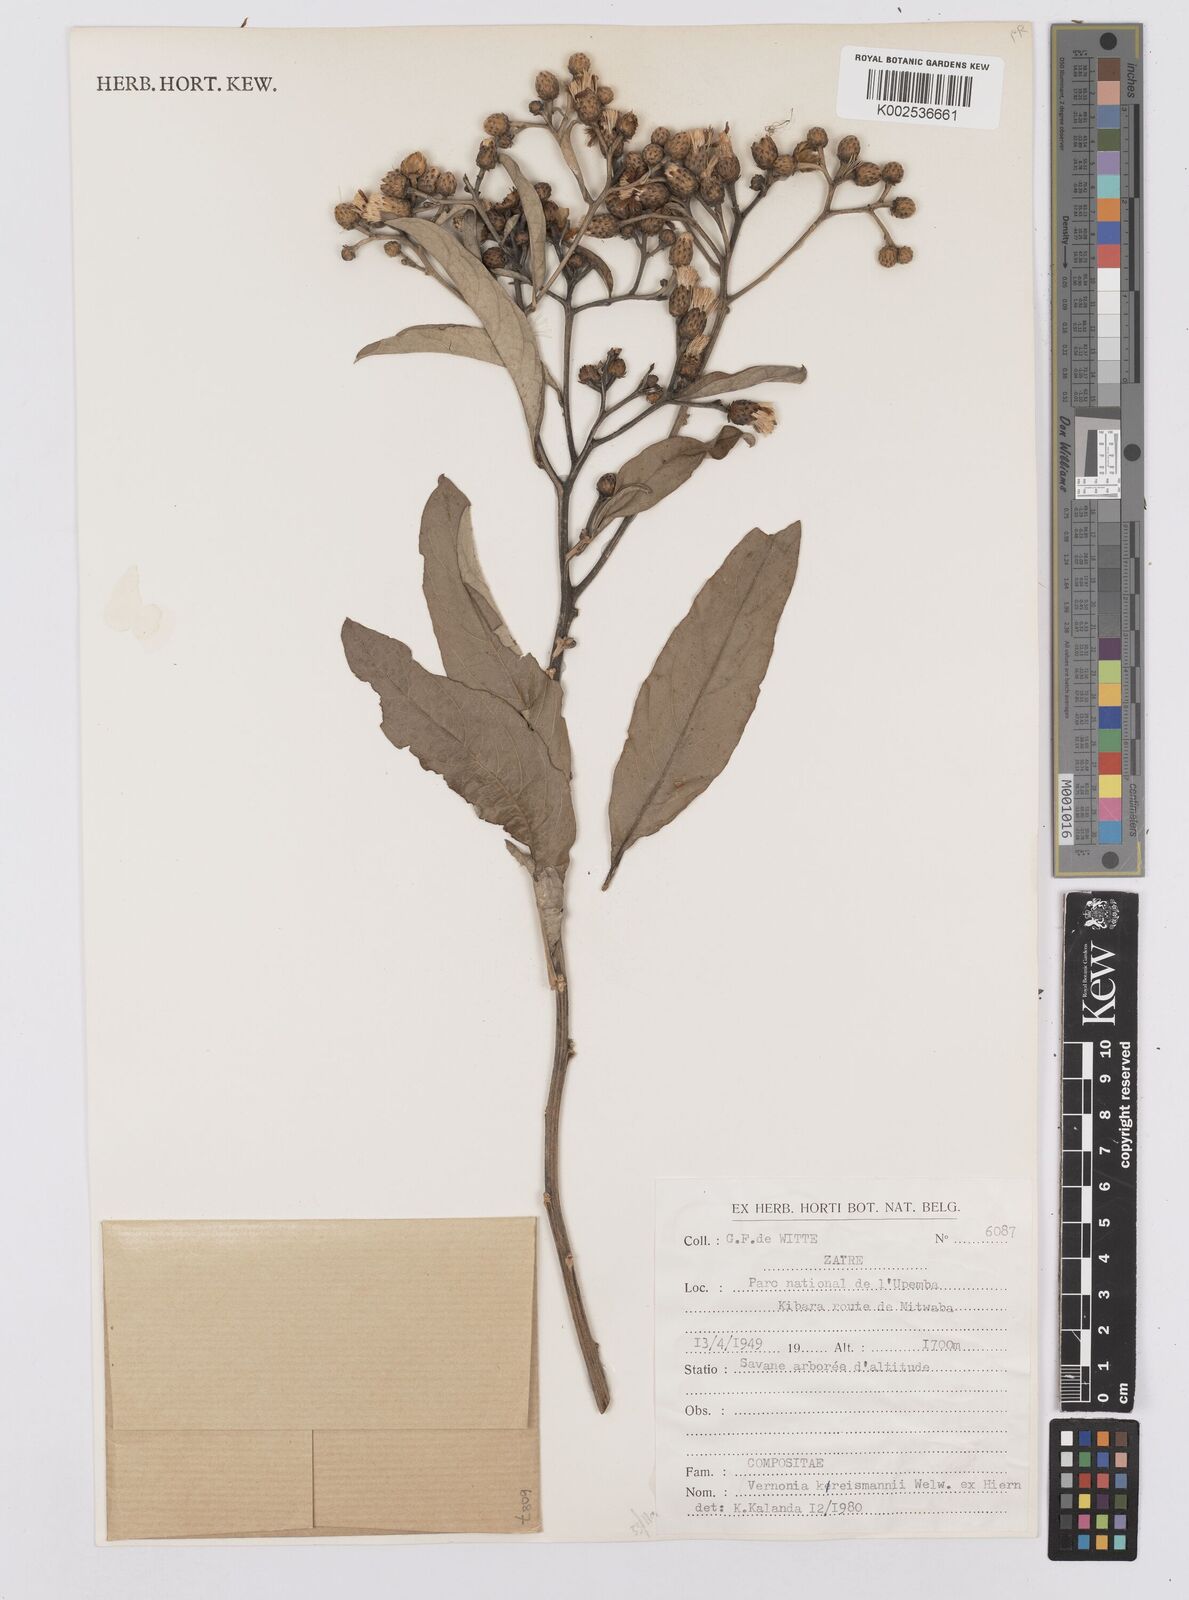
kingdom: Plantae
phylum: Tracheophyta
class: Magnoliopsida
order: Asterales
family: Asteraceae
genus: Gymnanthemum
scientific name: Gymnanthemum exsertiflorum
